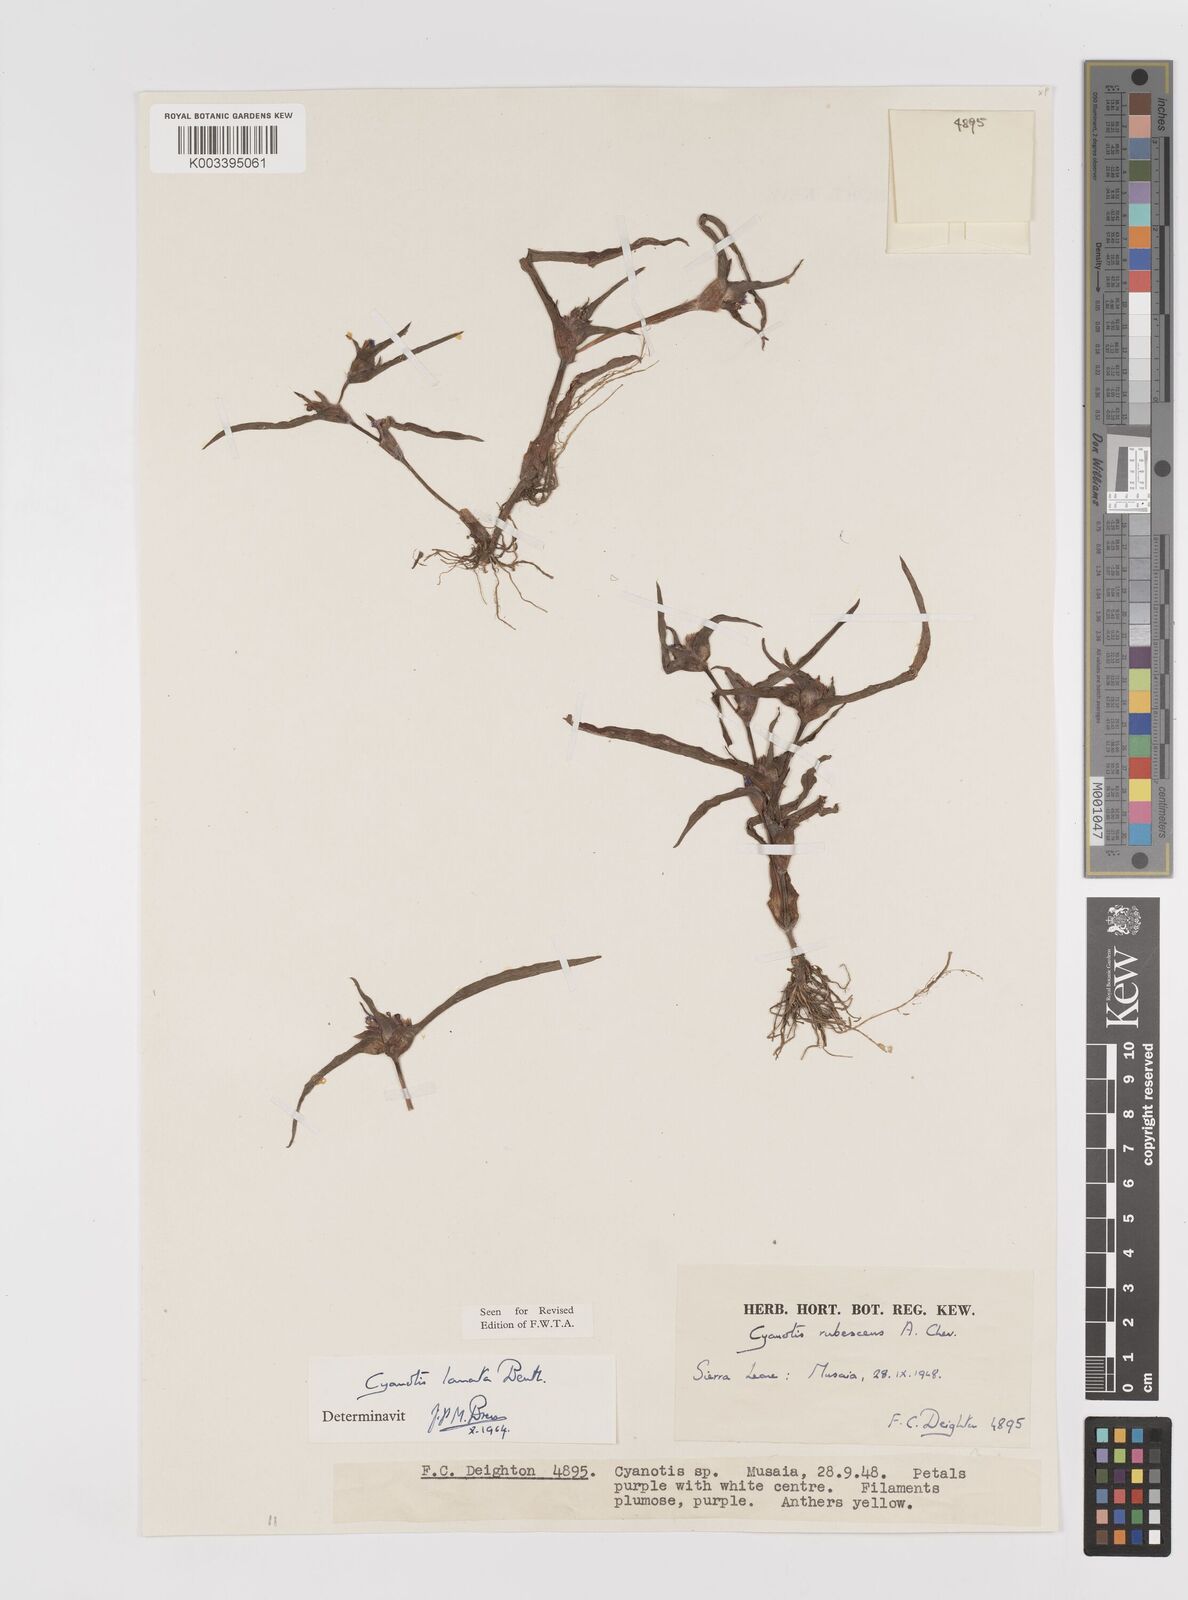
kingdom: Plantae
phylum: Tracheophyta
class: Liliopsida
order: Commelinales
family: Commelinaceae
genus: Cyanotis
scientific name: Cyanotis lanata
